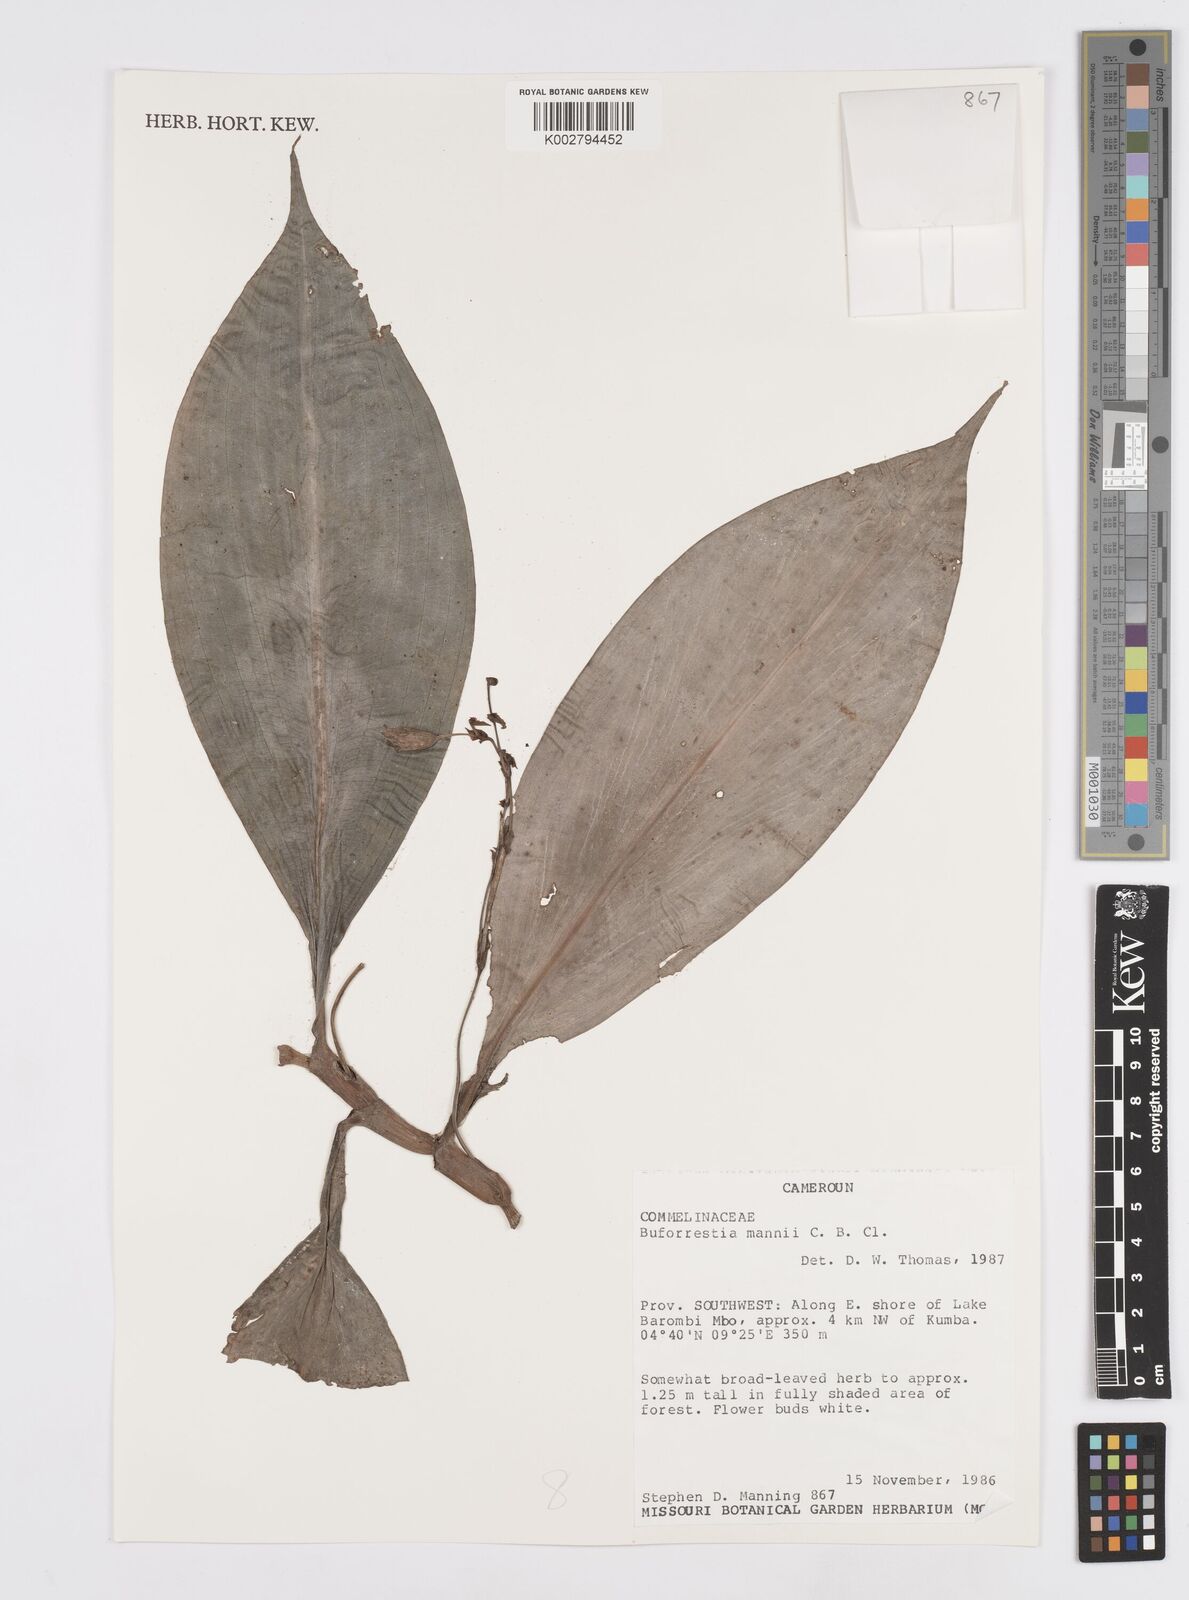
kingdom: Plantae
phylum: Tracheophyta
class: Liliopsida
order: Commelinales
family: Commelinaceae
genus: Buforrestia
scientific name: Buforrestia mannii
